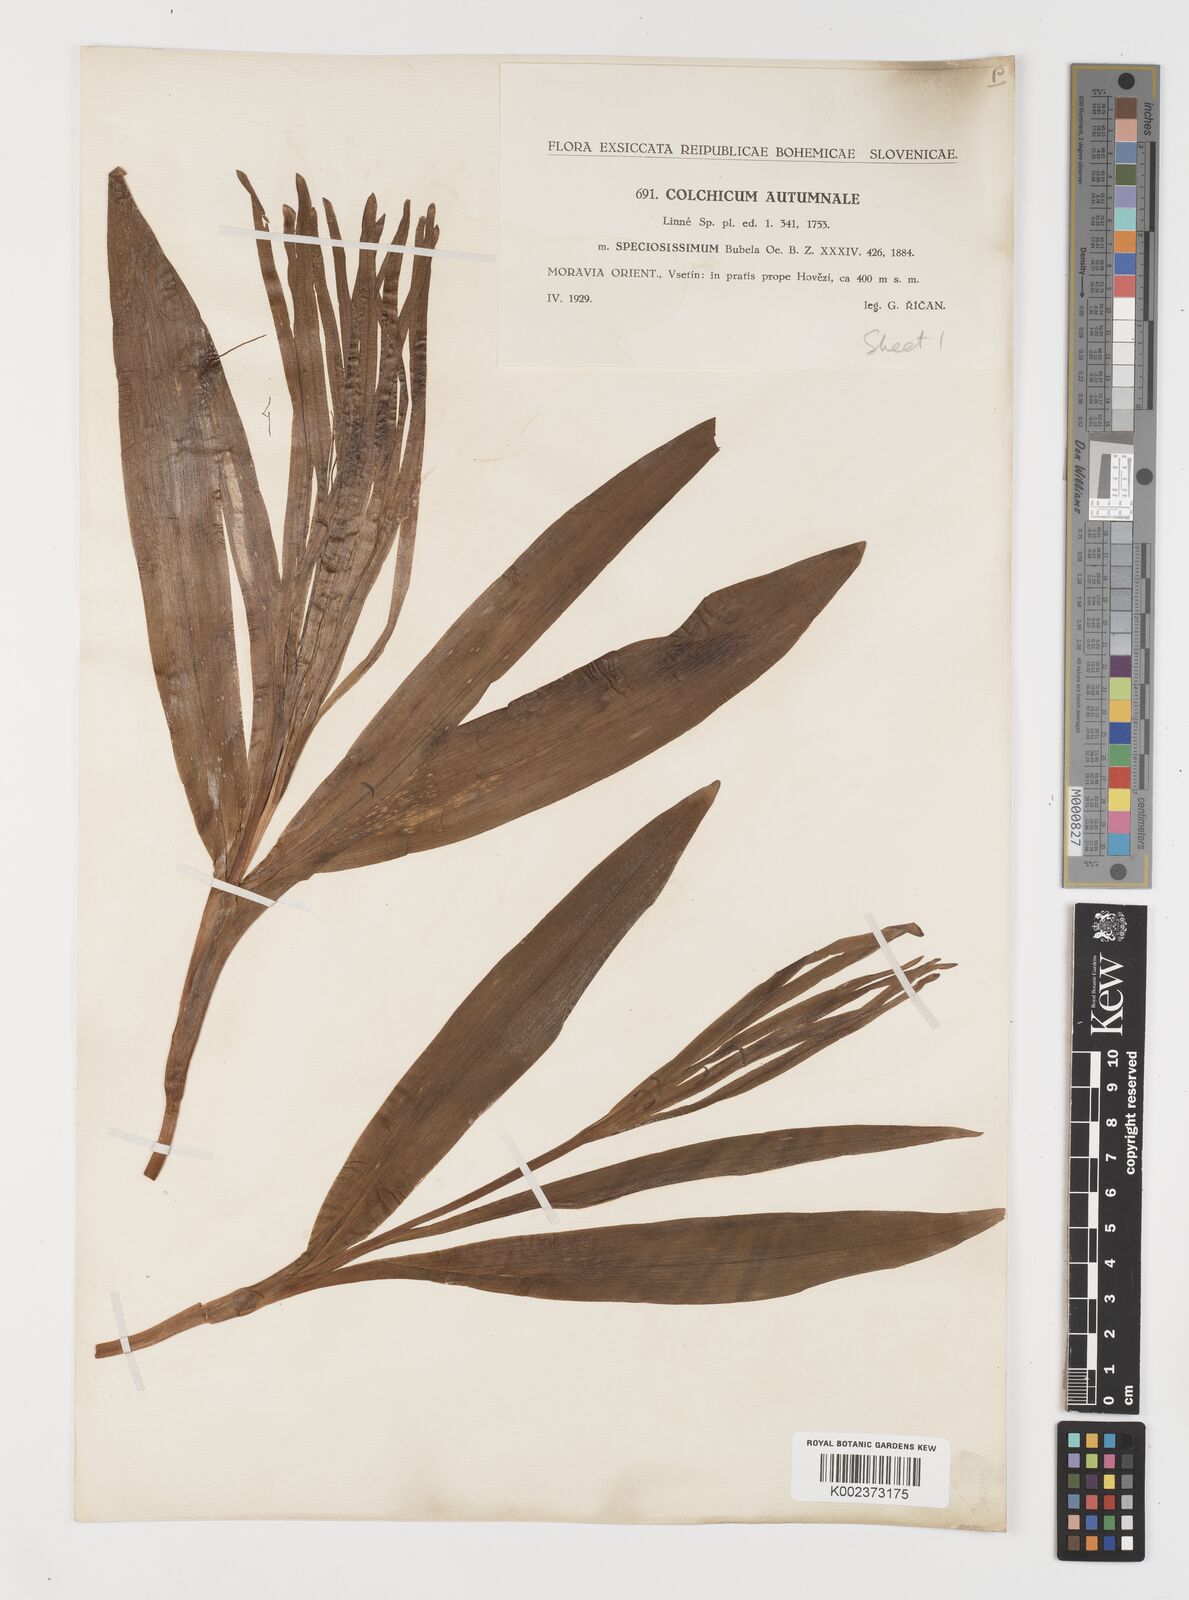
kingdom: Plantae
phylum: Tracheophyta
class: Liliopsida
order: Liliales
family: Colchicaceae
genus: Colchicum
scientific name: Colchicum autumnale
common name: Autumn crocus
